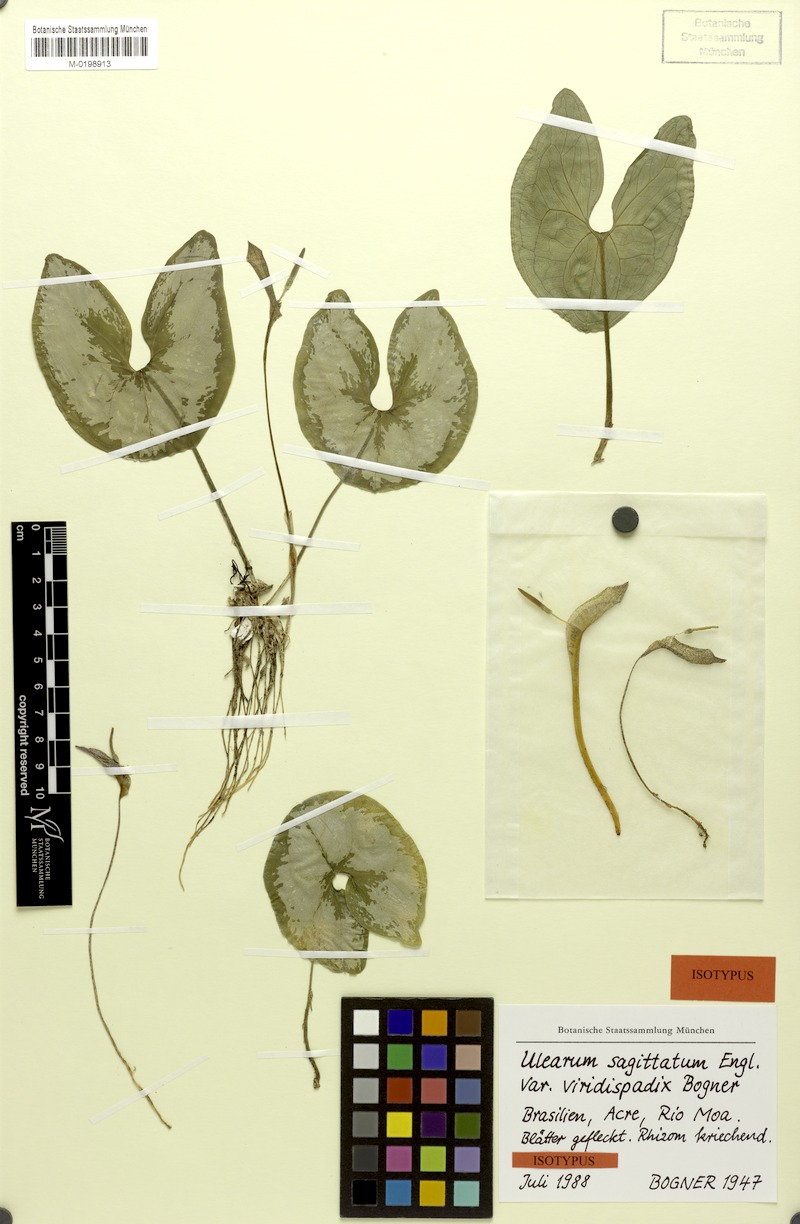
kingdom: Plantae
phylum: Tracheophyta
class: Liliopsida
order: Alismatales
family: Araceae
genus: Ulearum
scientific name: Ulearum sagittatum
